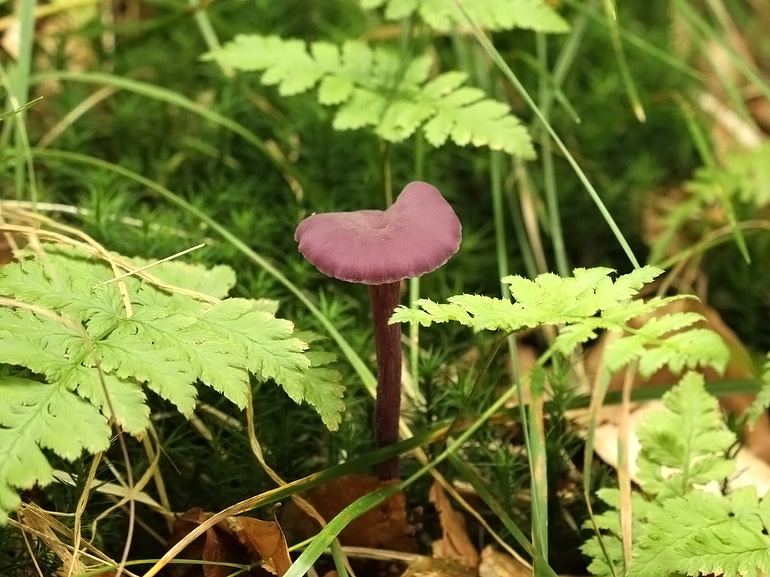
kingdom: Fungi
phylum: Basidiomycota
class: Agaricomycetes
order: Agaricales
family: Hydnangiaceae
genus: Laccaria
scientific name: Laccaria amethystina
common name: violet ametysthat
